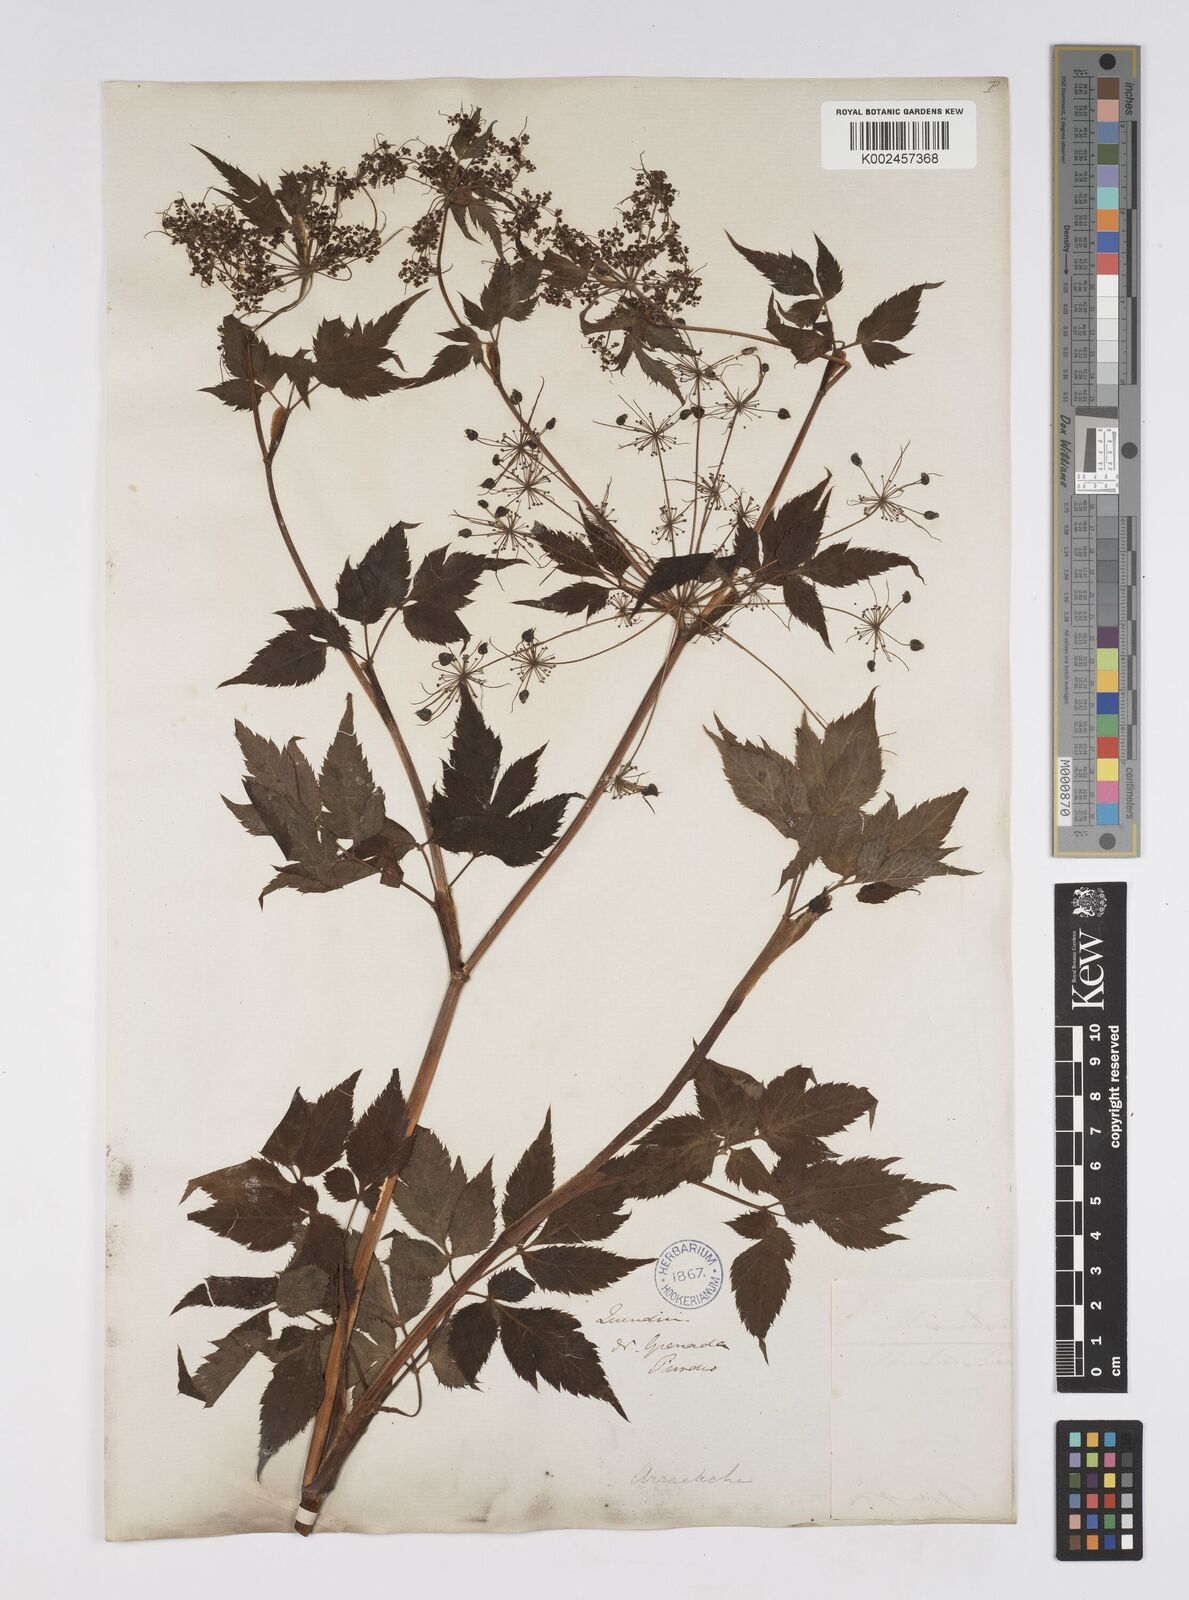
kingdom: Plantae
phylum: Tracheophyta
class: Magnoliopsida
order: Apiales
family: Apiaceae
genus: Neonelsonia
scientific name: Neonelsonia acuminata
